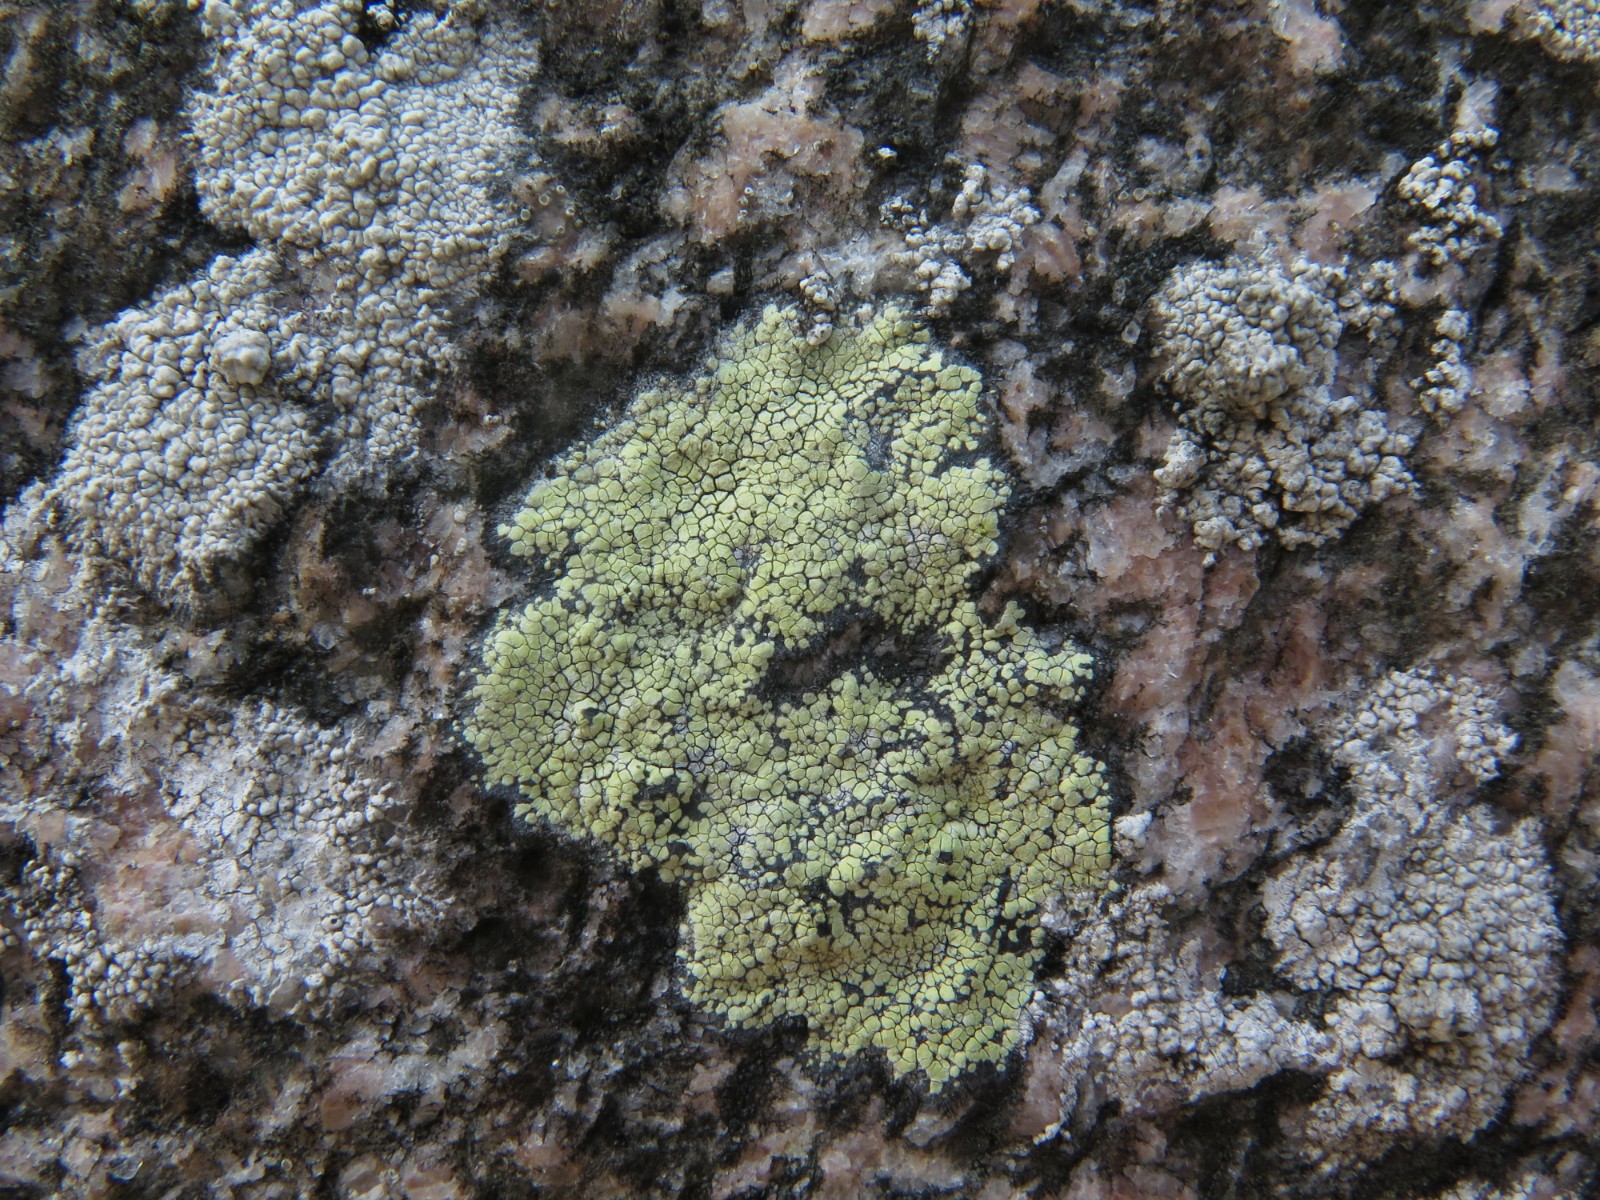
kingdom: Fungi
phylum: Ascomycota
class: Lecanoromycetes
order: Rhizocarpales
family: Rhizocarpaceae
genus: Rhizocarpon
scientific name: Rhizocarpon geographicum
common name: gulgrøn landkortlav
